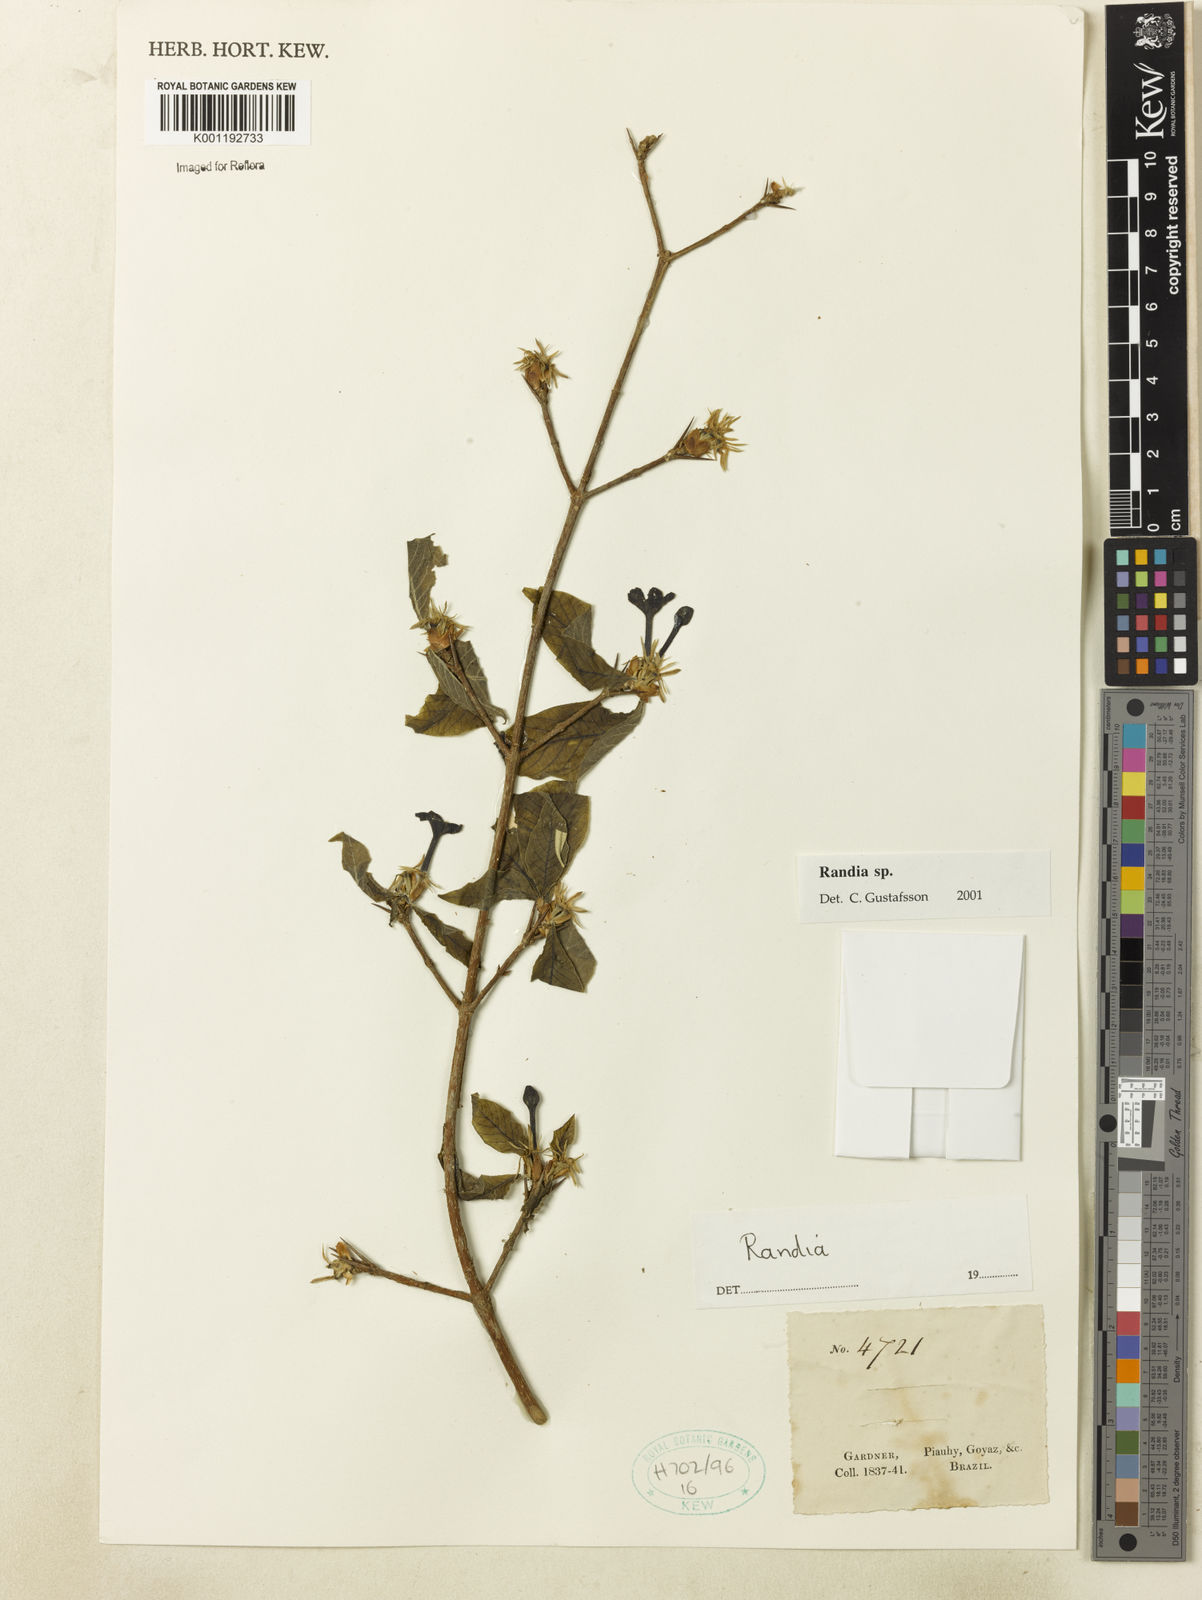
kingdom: Plantae
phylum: Tracheophyta
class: Magnoliopsida
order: Gentianales
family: Rubiaceae
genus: Randia
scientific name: Randia
